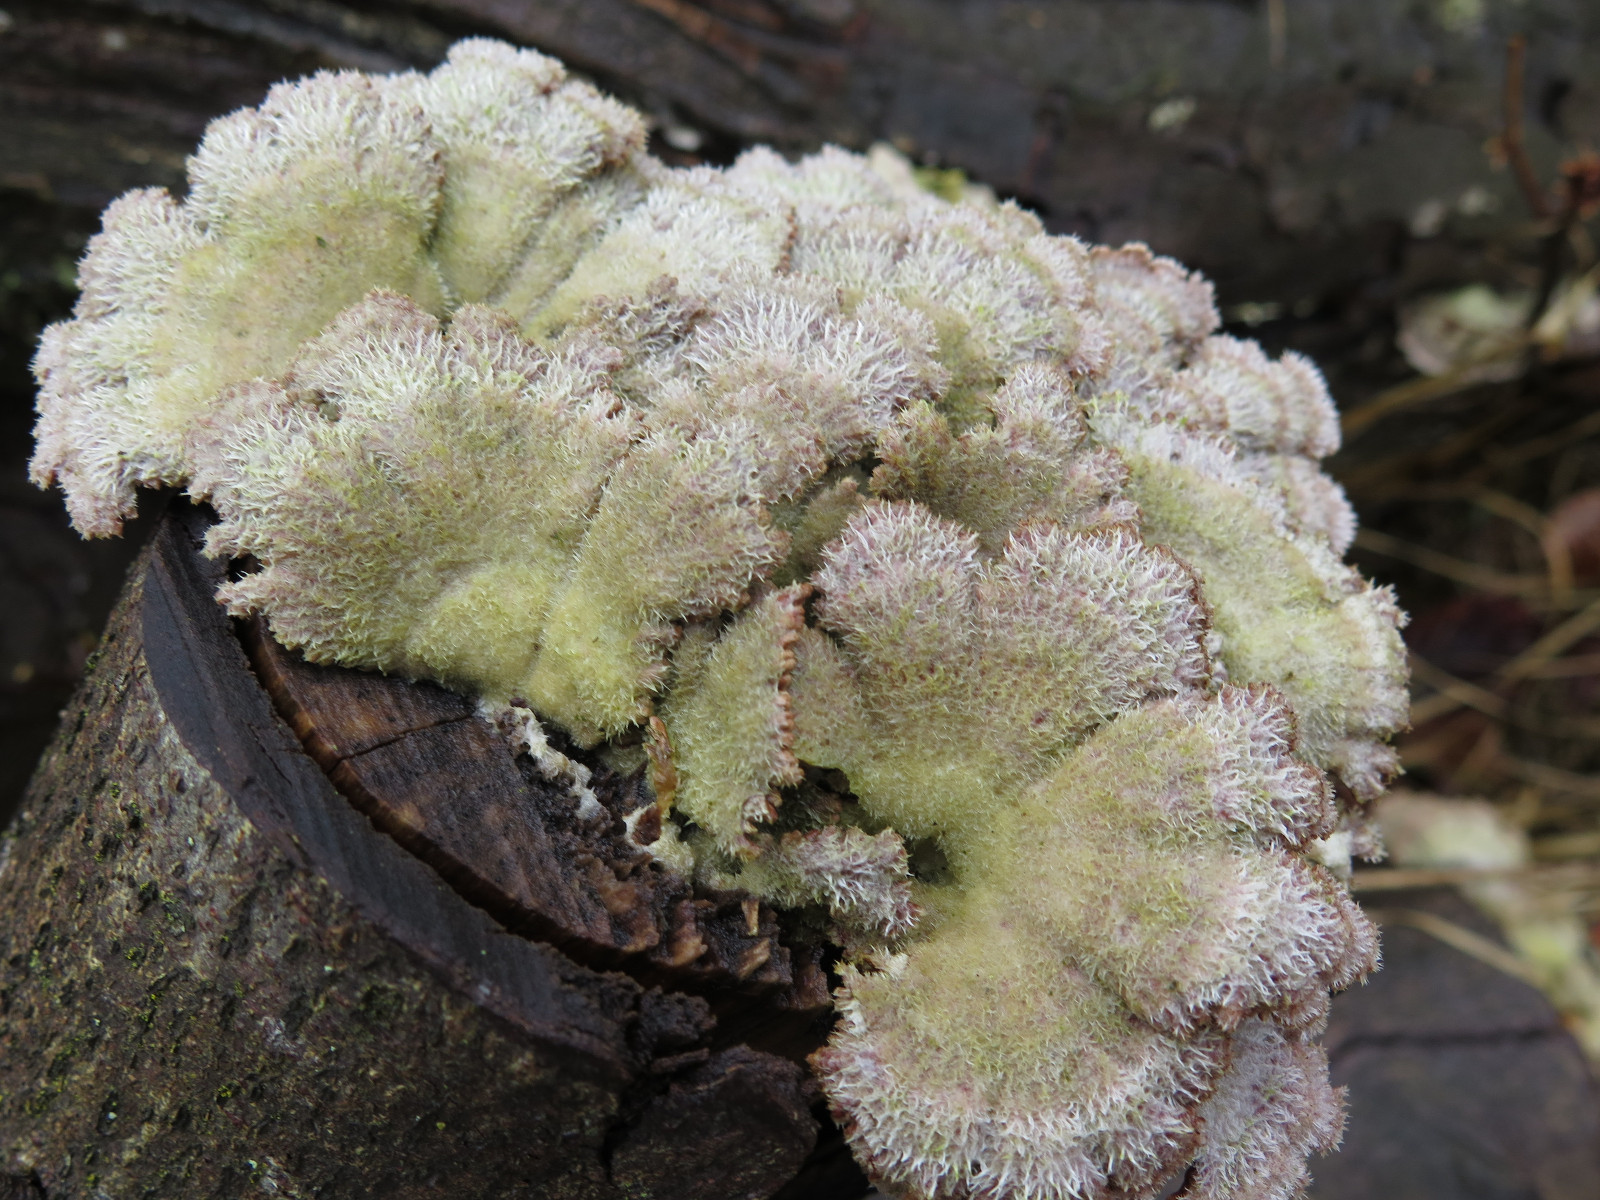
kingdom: Fungi
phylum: Basidiomycota
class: Agaricomycetes
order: Agaricales
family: Schizophyllaceae
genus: Schizophyllum
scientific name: Schizophyllum commune
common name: kløvblad
